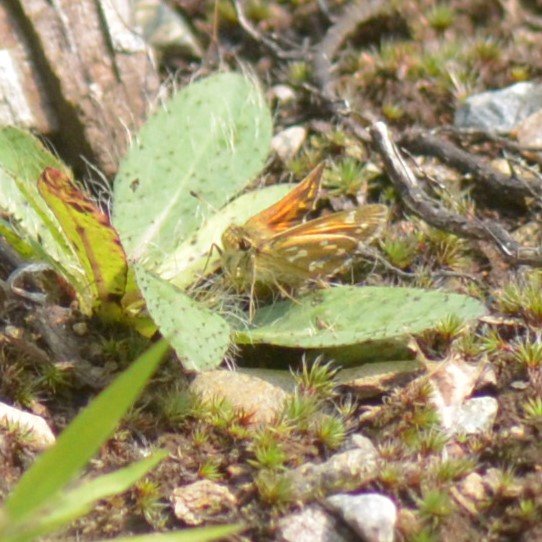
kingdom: Animalia
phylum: Arthropoda
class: Insecta
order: Lepidoptera
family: Hesperiidae
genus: Hesperia
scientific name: Hesperia comma
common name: Common Branded Skipper
